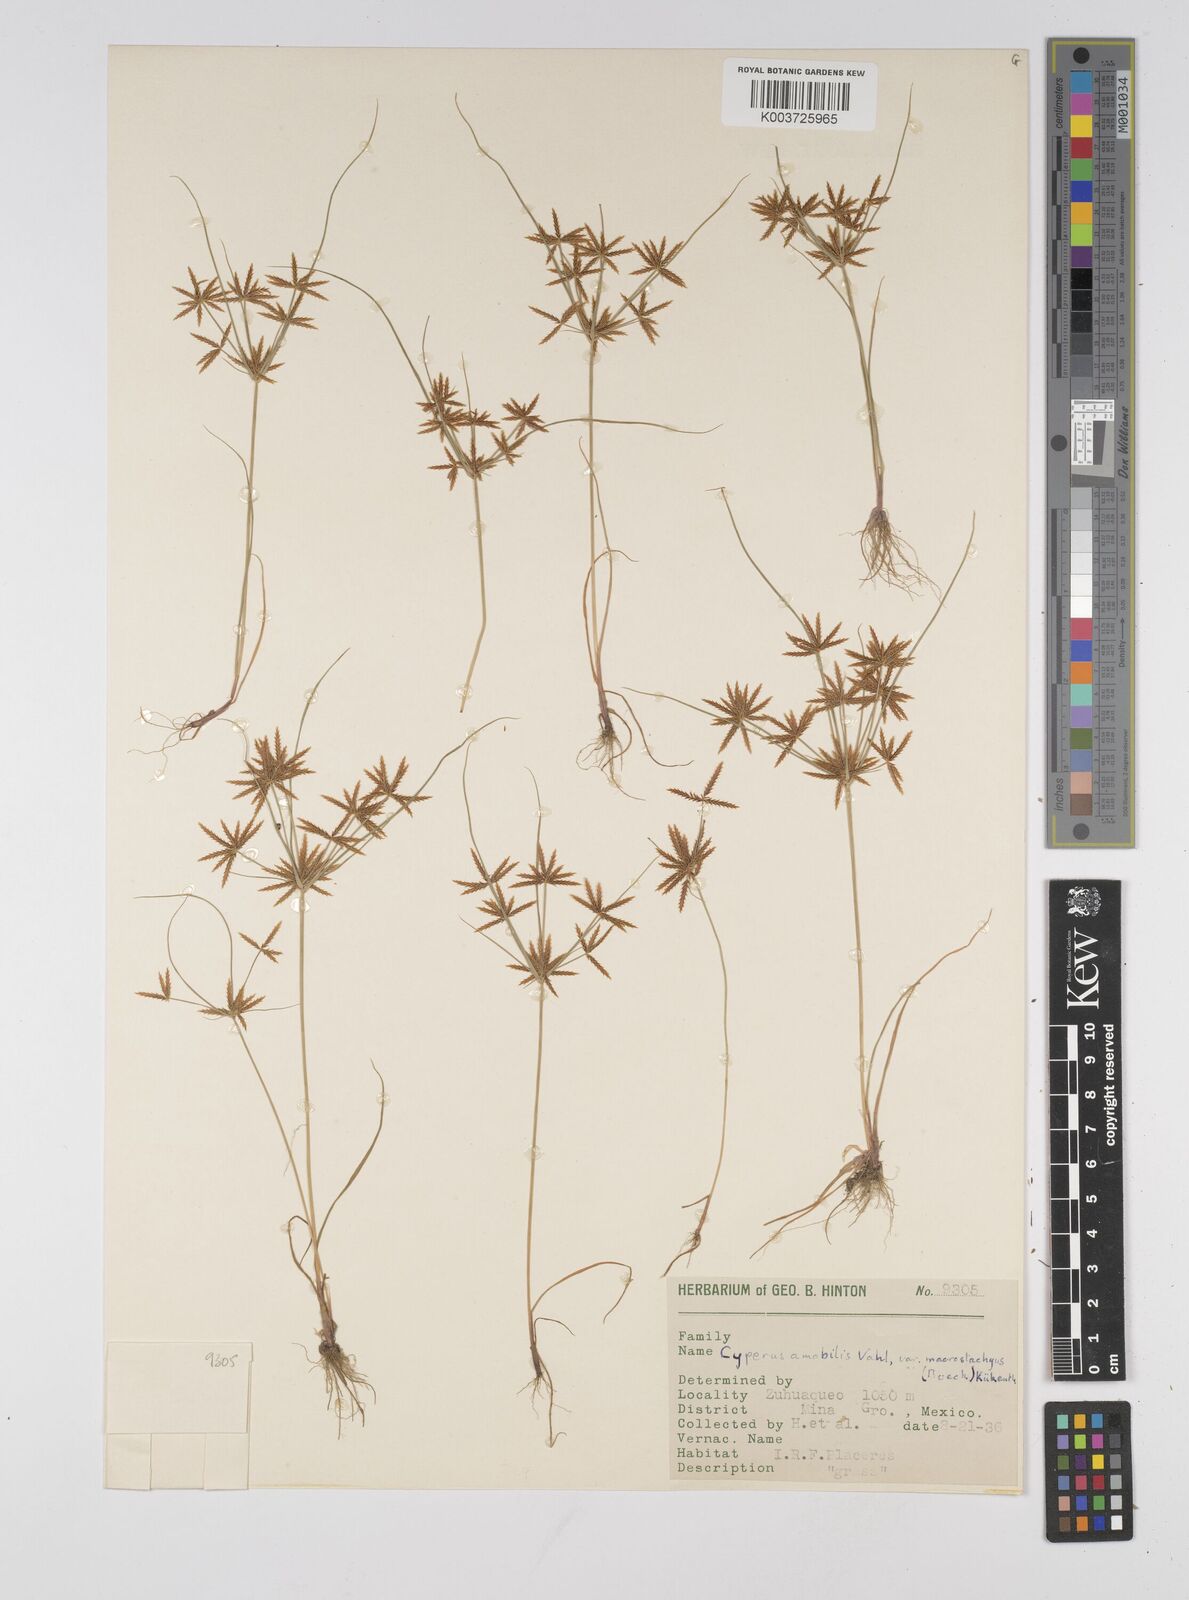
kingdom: Plantae
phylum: Tracheophyta
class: Liliopsida
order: Poales
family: Cyperaceae
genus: Cyperus
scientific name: Cyperus amabilis
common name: Foothill flat sedge
